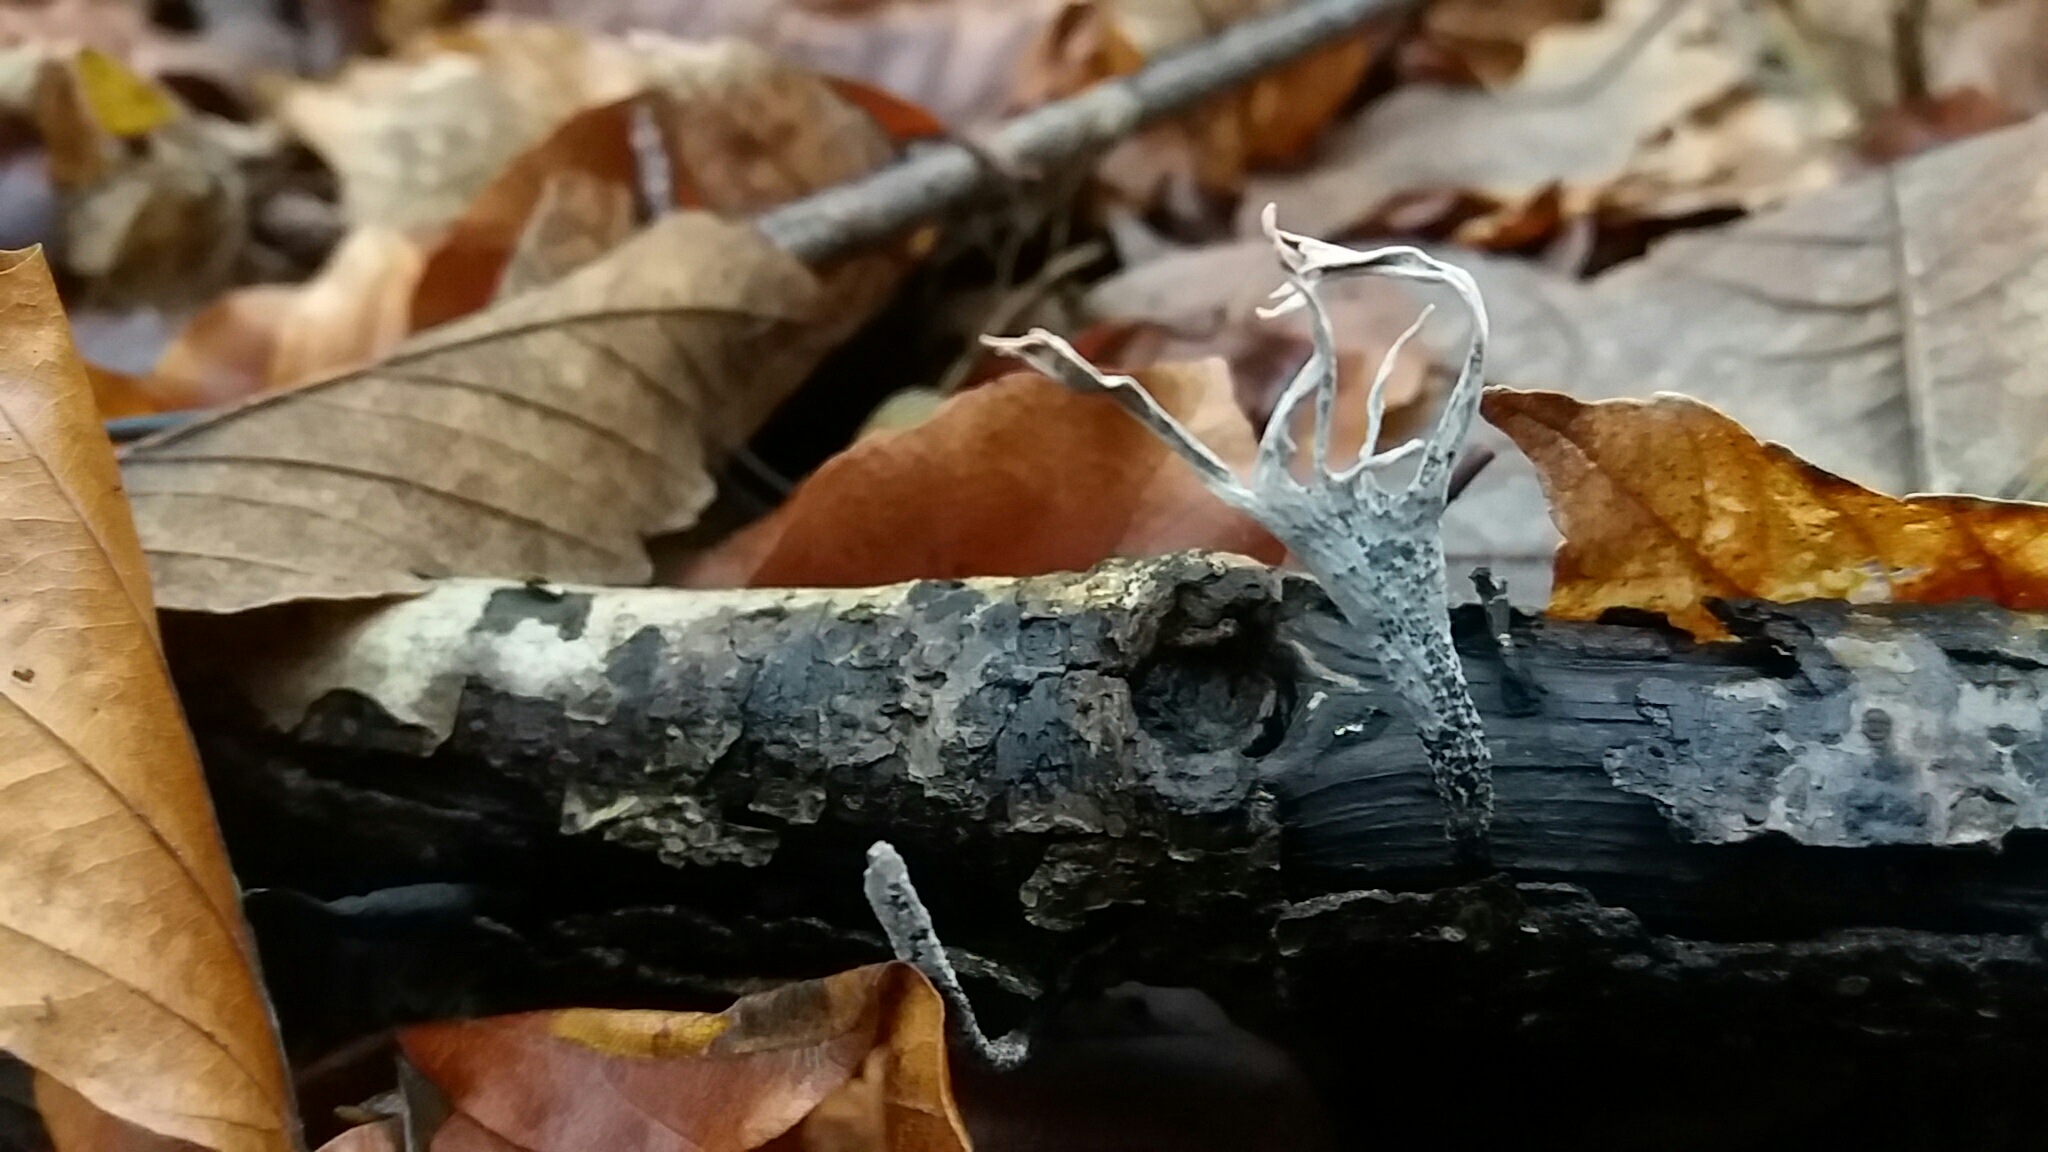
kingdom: Fungi
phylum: Ascomycota
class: Sordariomycetes
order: Xylariales
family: Xylariaceae
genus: Xylaria
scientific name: Xylaria hypoxylon
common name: grenet stødsvamp
